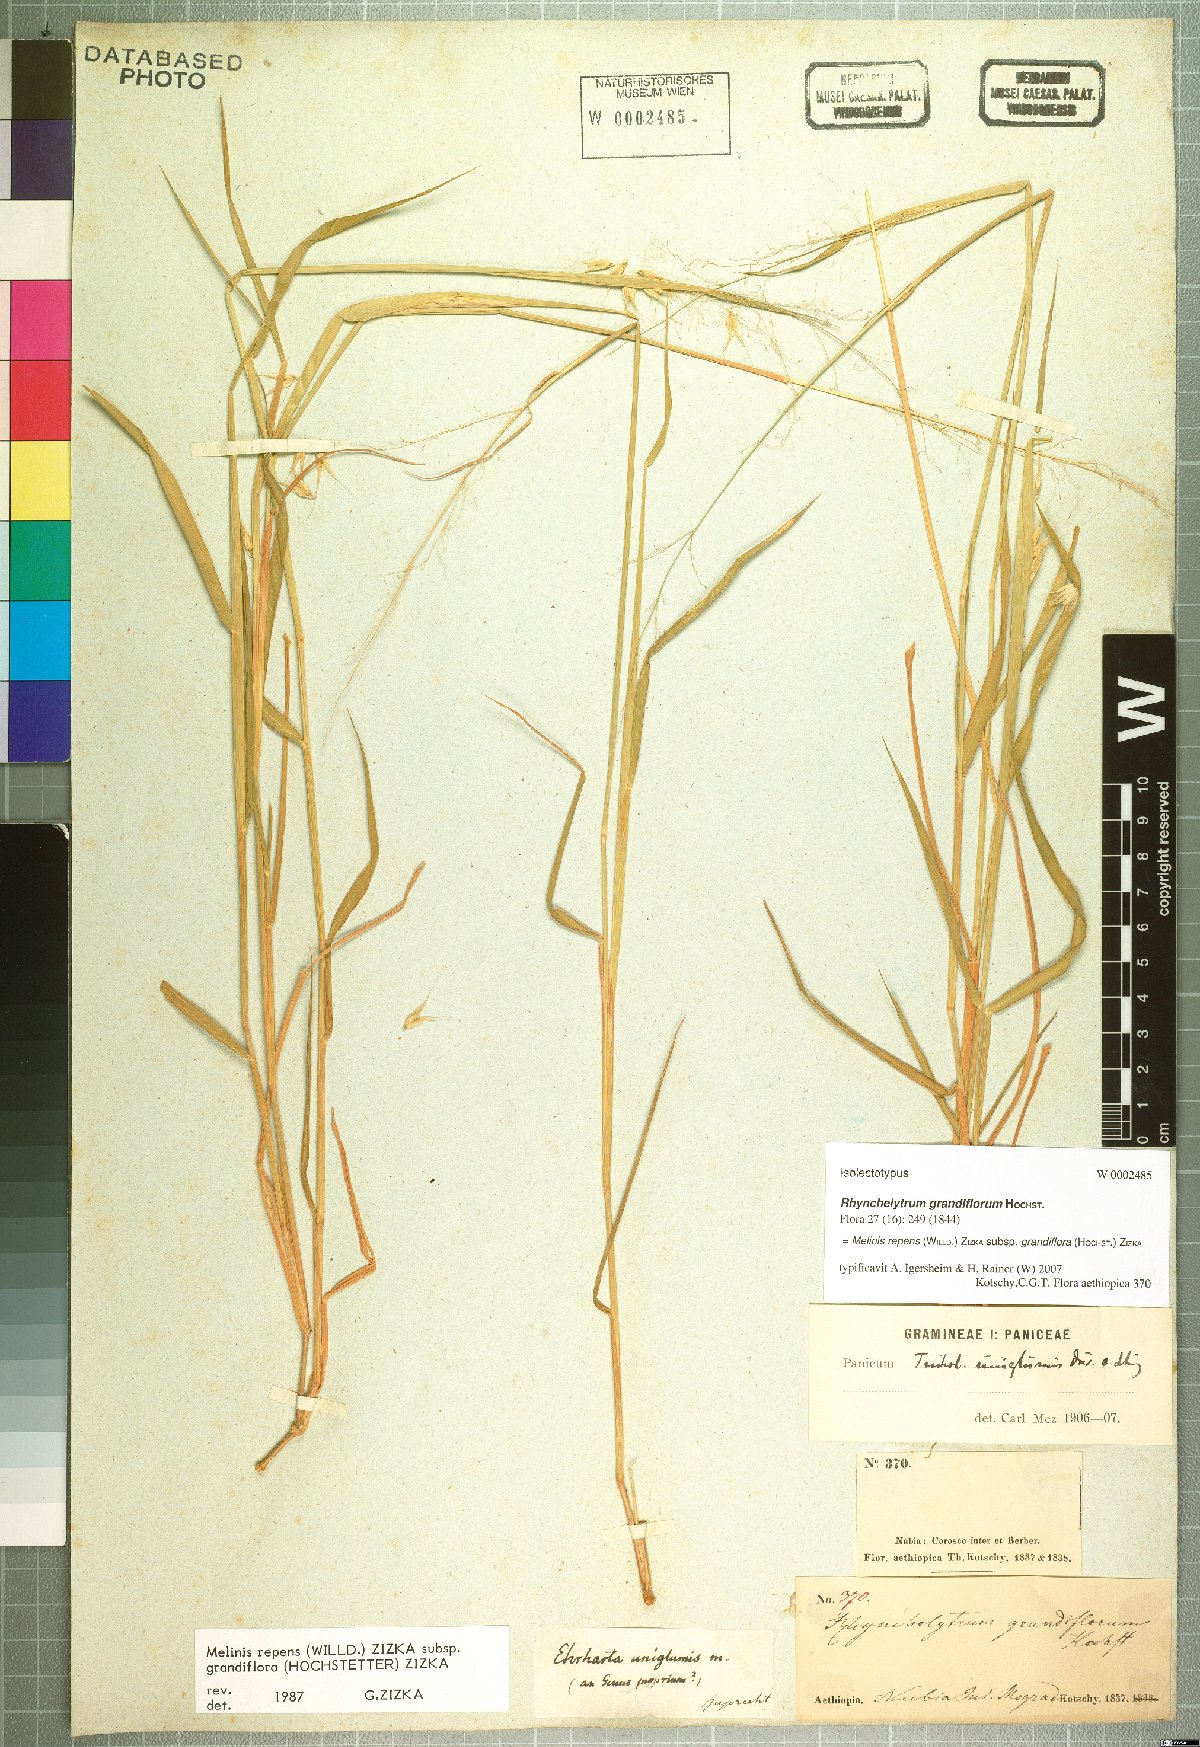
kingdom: Plantae
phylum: Tracheophyta
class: Liliopsida
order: Poales
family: Poaceae
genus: Melinis
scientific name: Melinis repens
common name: Rose natal grass
